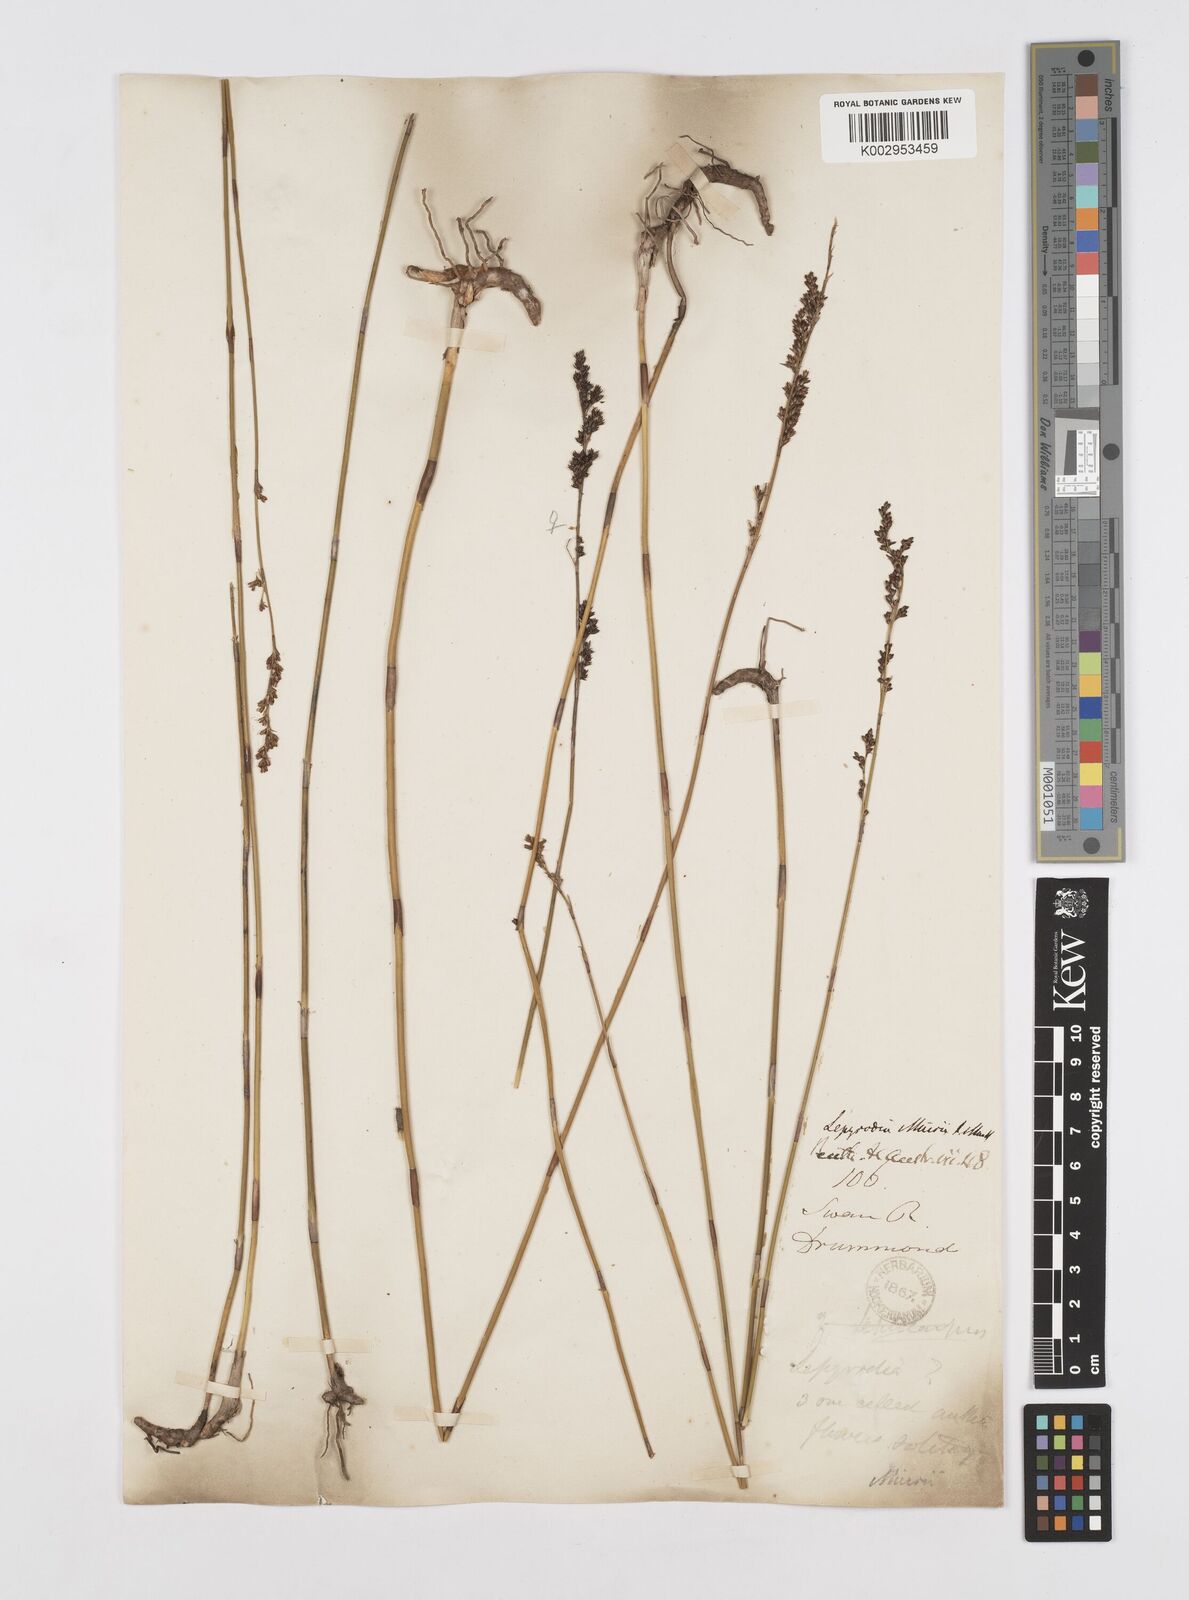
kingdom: Plantae
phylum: Tracheophyta
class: Liliopsida
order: Poales
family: Restionaceae
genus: Lepyrodia
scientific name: Lepyrodia muirii
